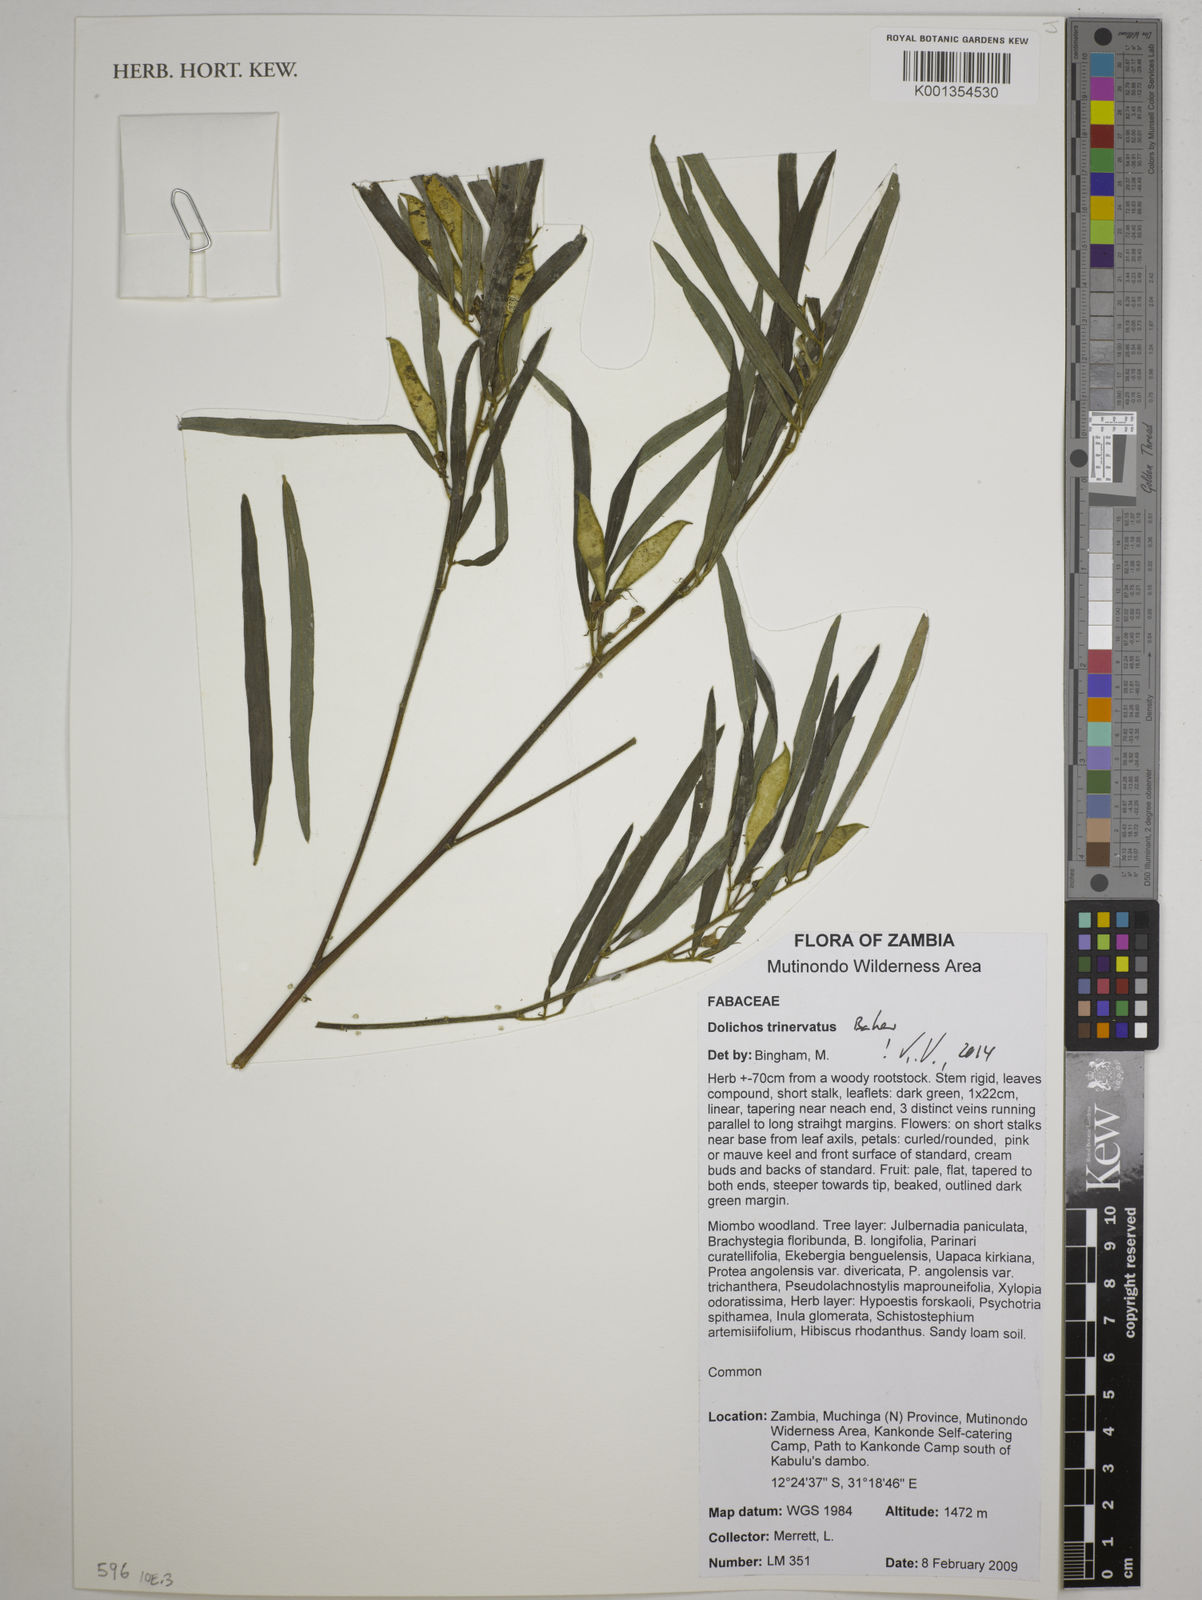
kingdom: Plantae
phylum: Tracheophyta
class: Magnoliopsida
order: Fabales
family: Fabaceae
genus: Dolichos
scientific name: Dolichos trinervatus
